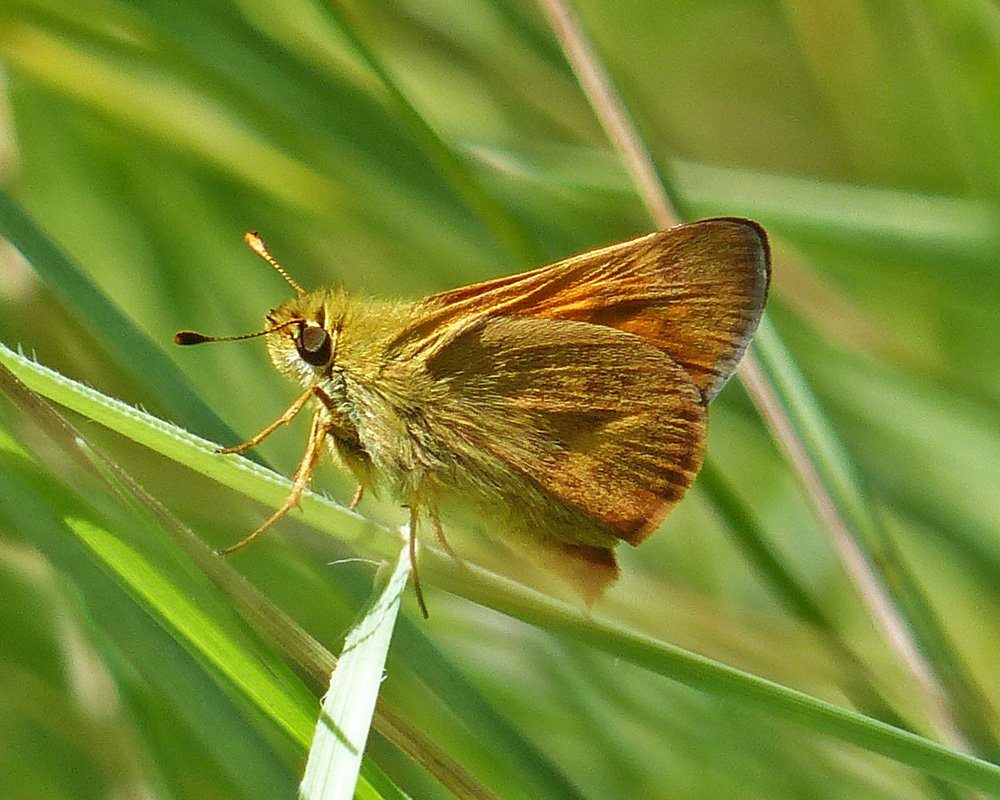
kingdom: Animalia
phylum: Arthropoda
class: Insecta
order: Lepidoptera
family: Hesperiidae
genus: Ochlodes
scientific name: Ochlodes sylvanoides
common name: Woodland Skipper
